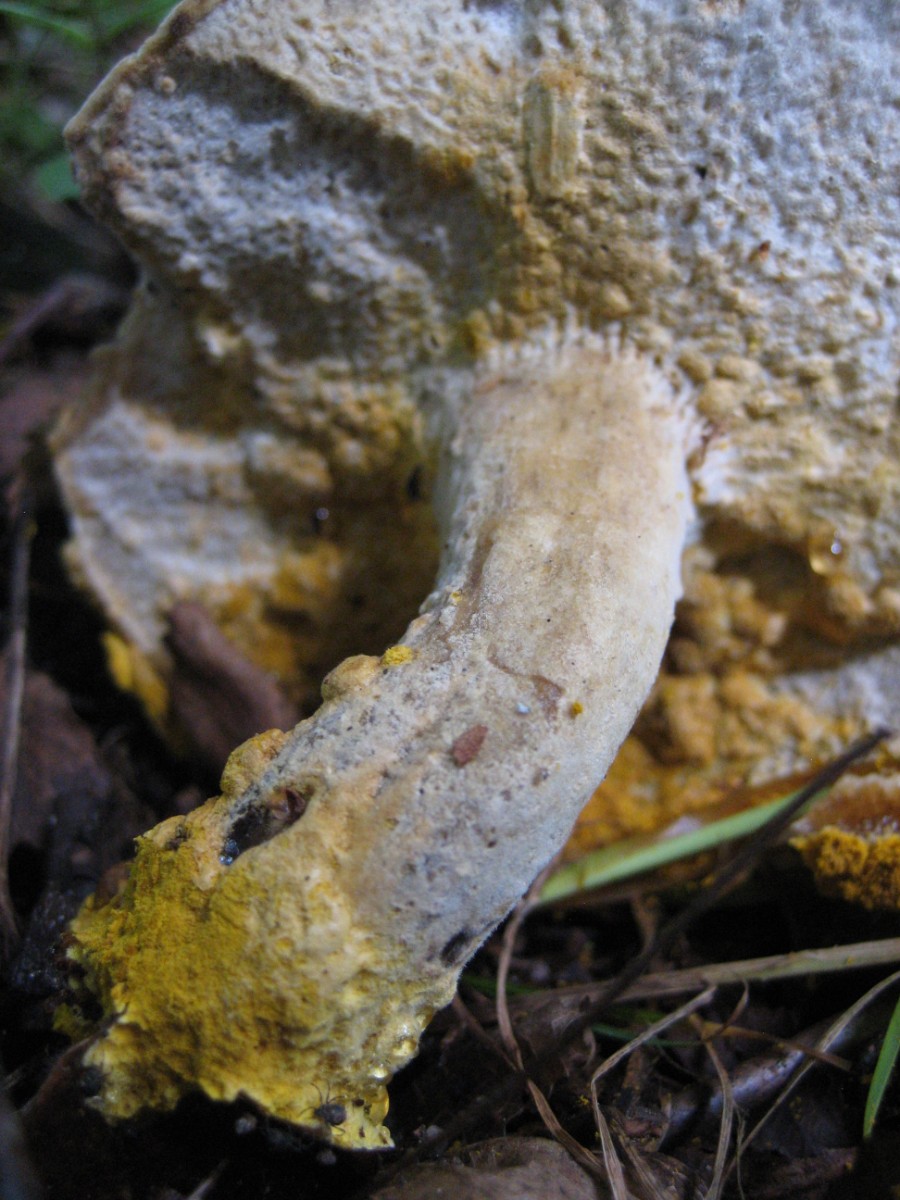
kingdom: Fungi
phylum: Ascomycota
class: Sordariomycetes
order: Hypocreales
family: Hypocreaceae
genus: Hypomyces
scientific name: Hypomyces
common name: snylteskorpe
